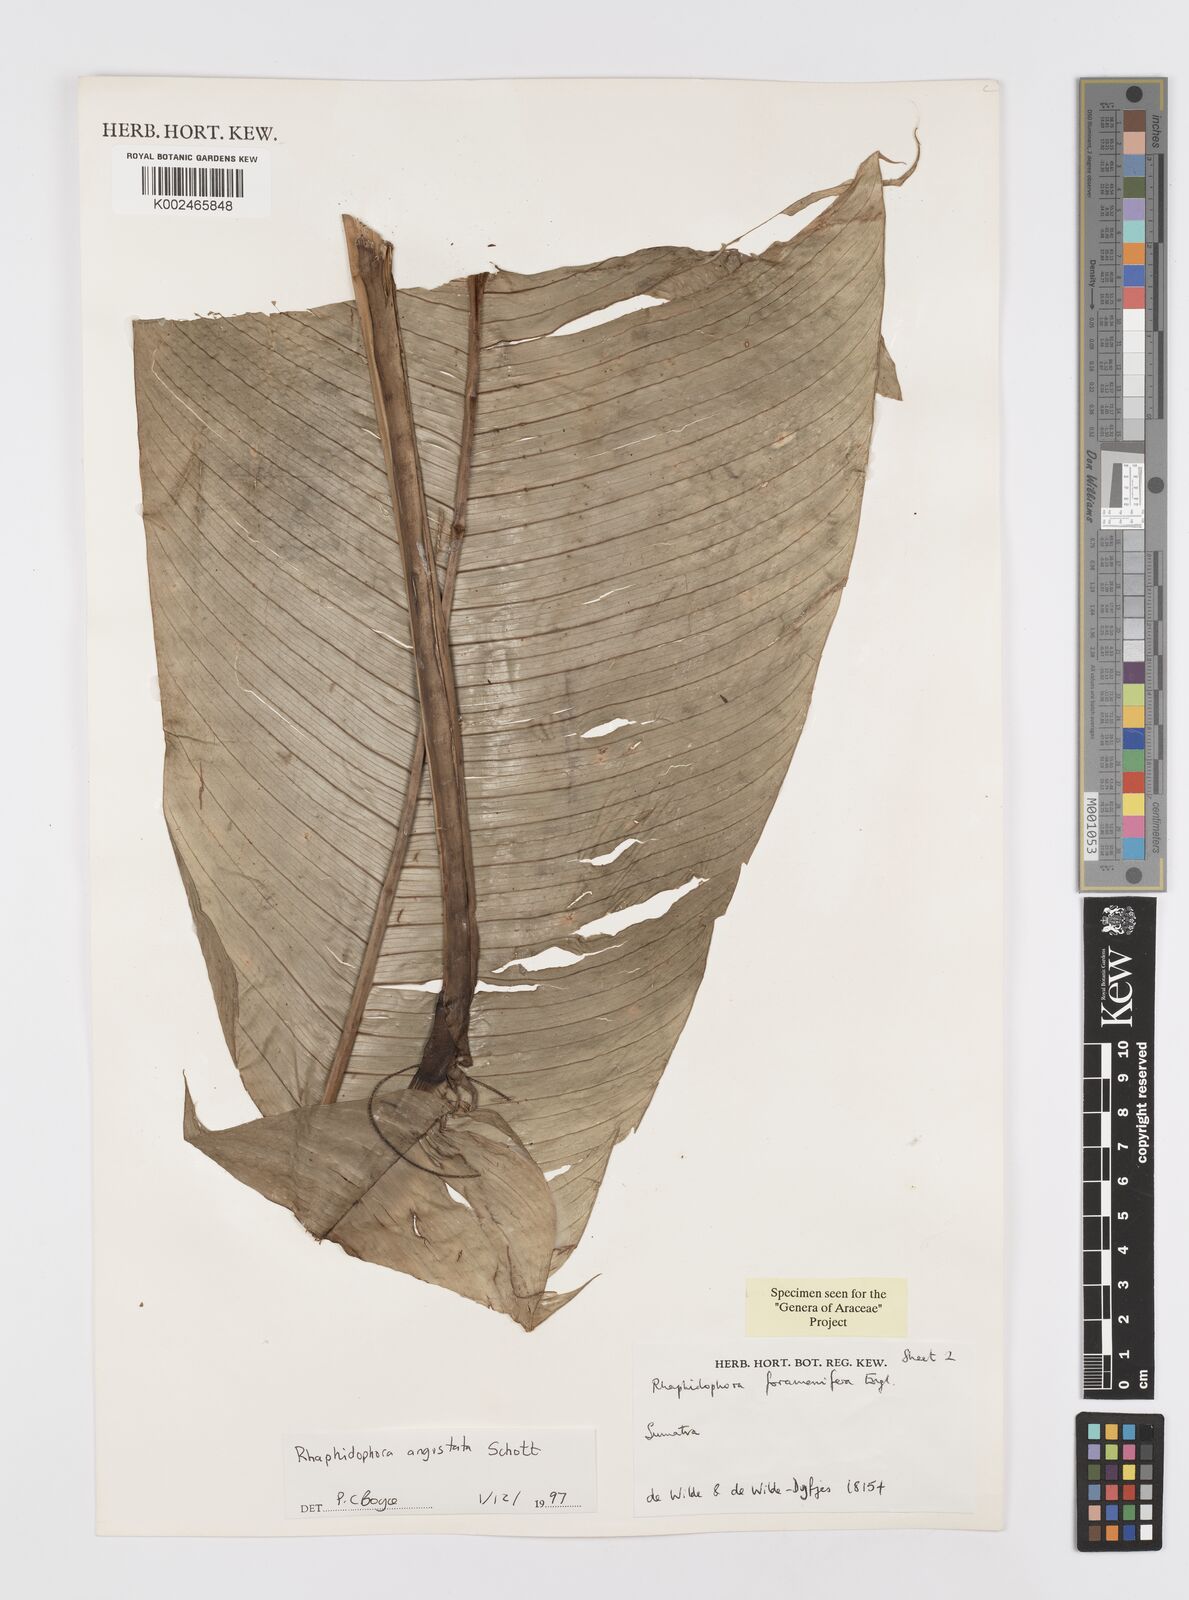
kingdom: Plantae
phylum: Tracheophyta
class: Liliopsida
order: Alismatales
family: Araceae
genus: Rhaphidophora
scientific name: Rhaphidophora angustata
